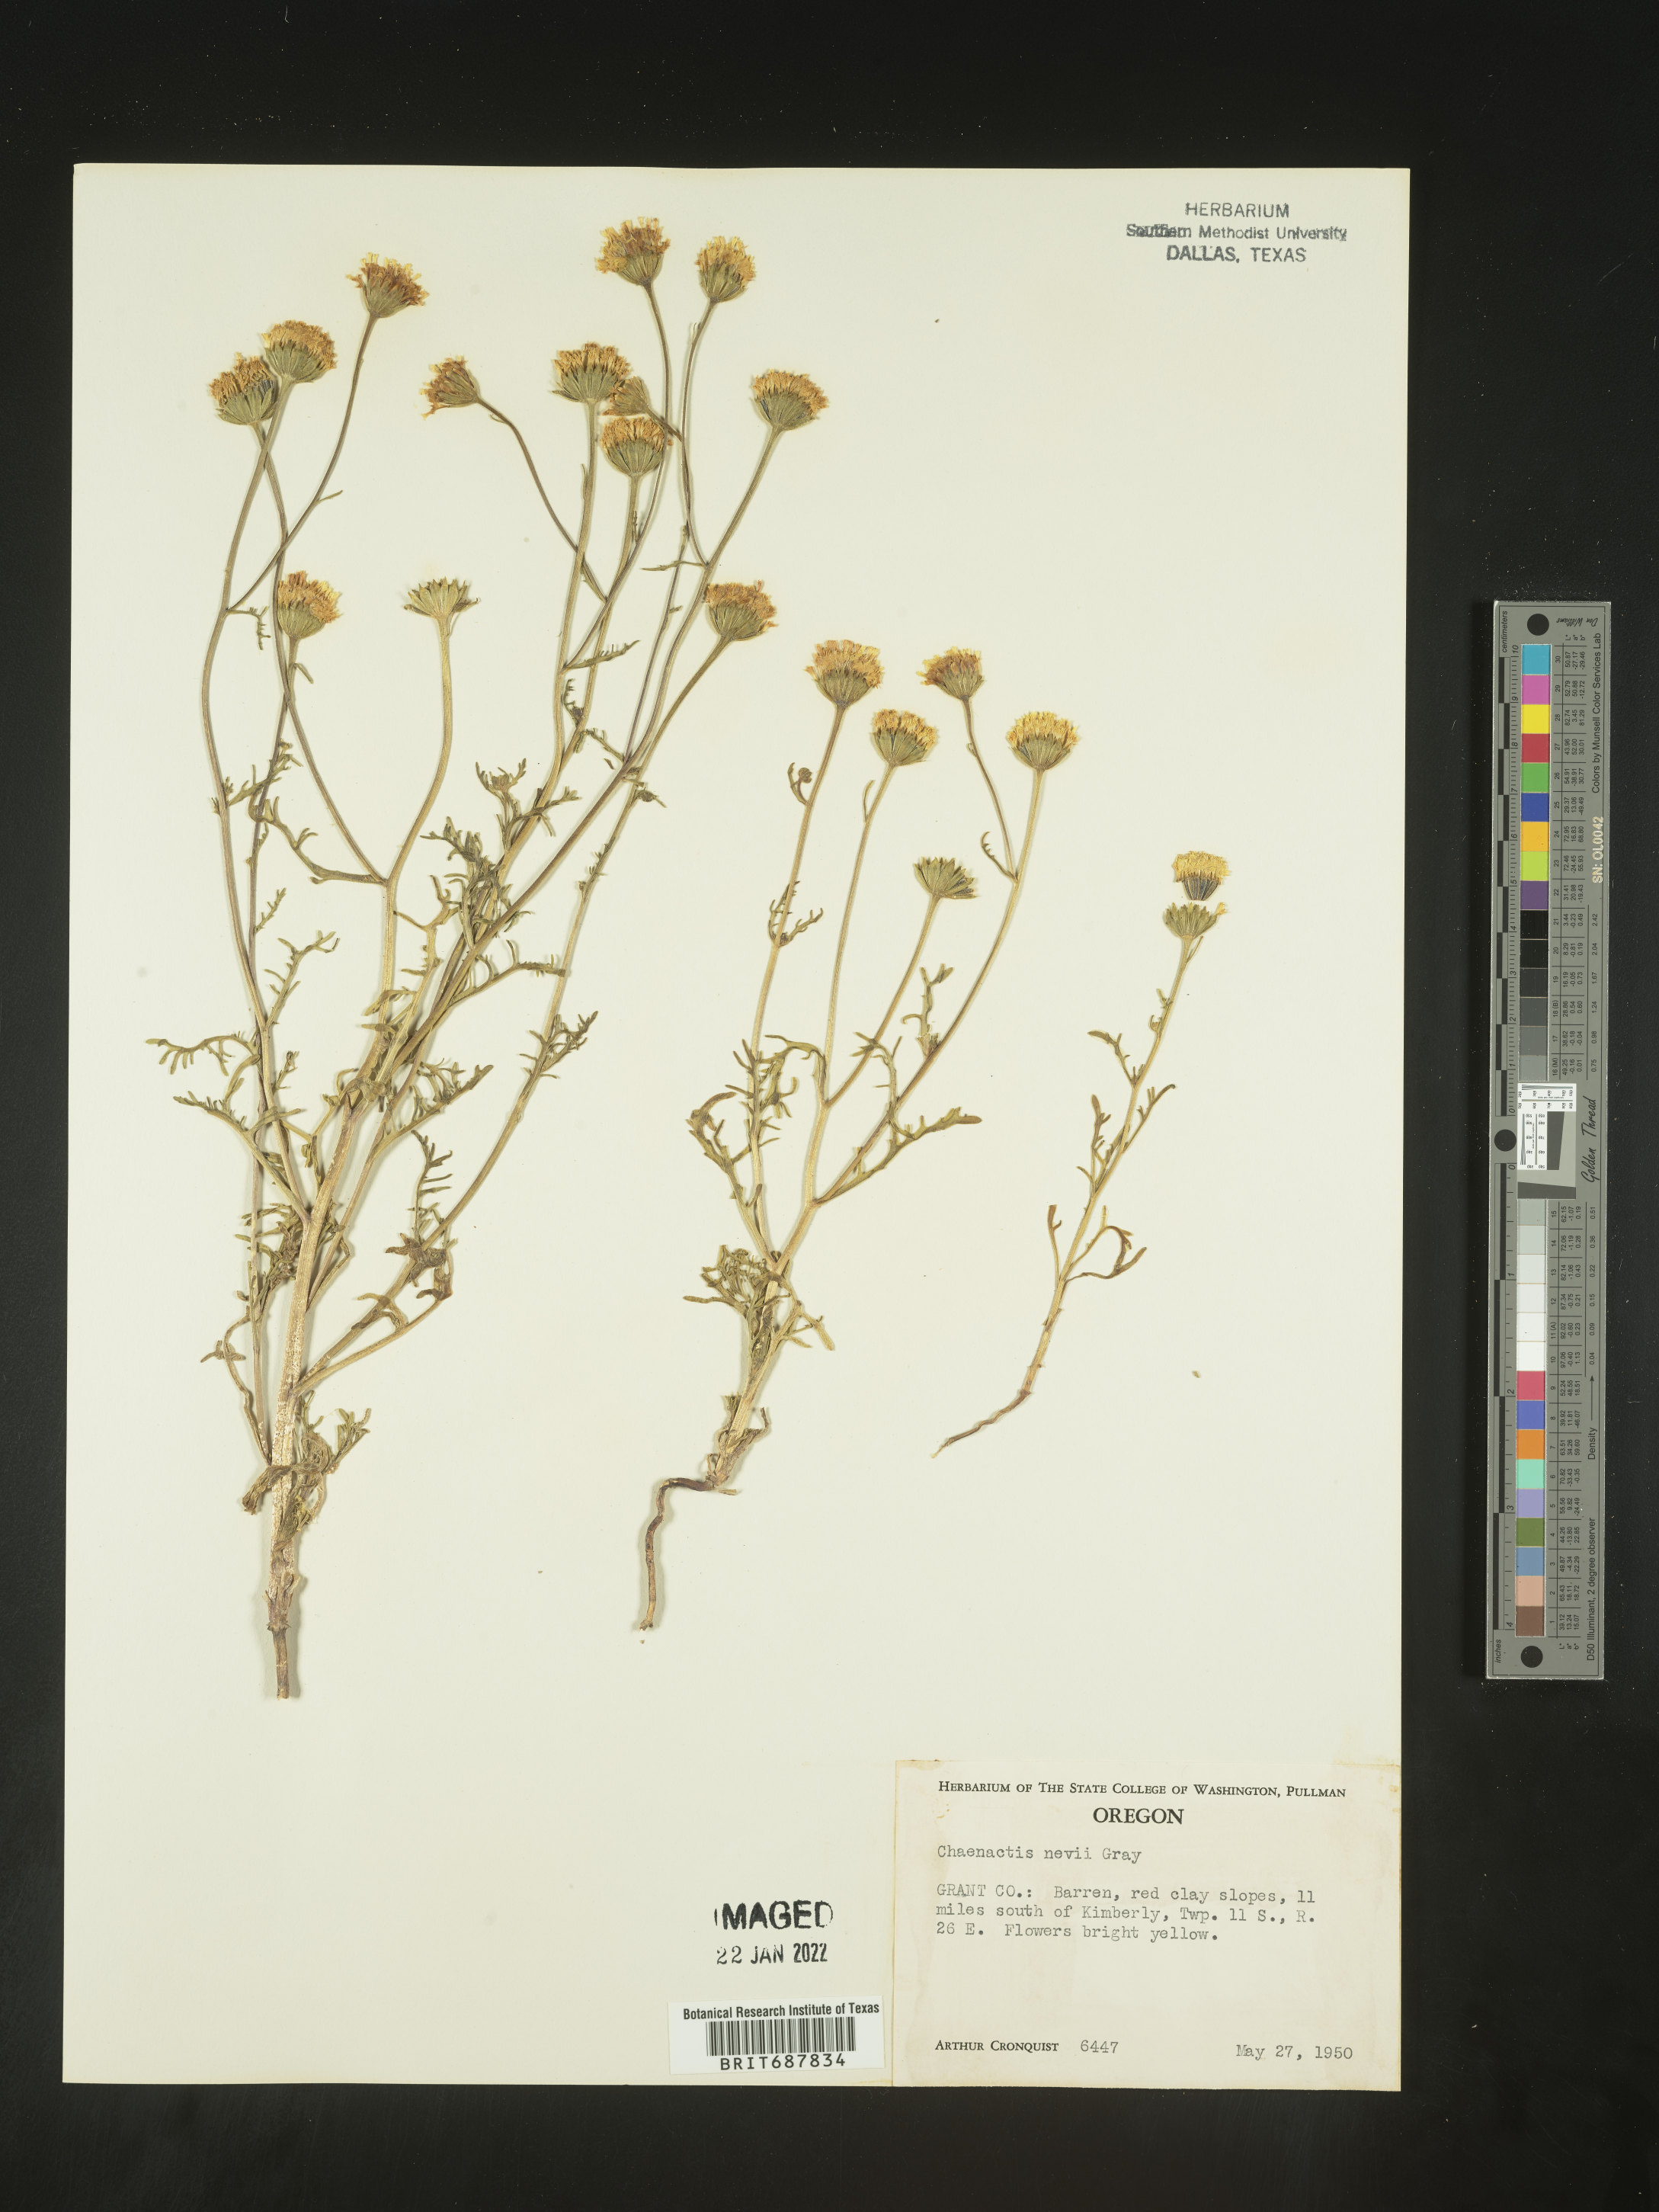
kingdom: Plantae
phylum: Tracheophyta
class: Magnoliopsida
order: Asterales
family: Asteraceae
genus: Chaenactis
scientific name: Chaenactis nevii
